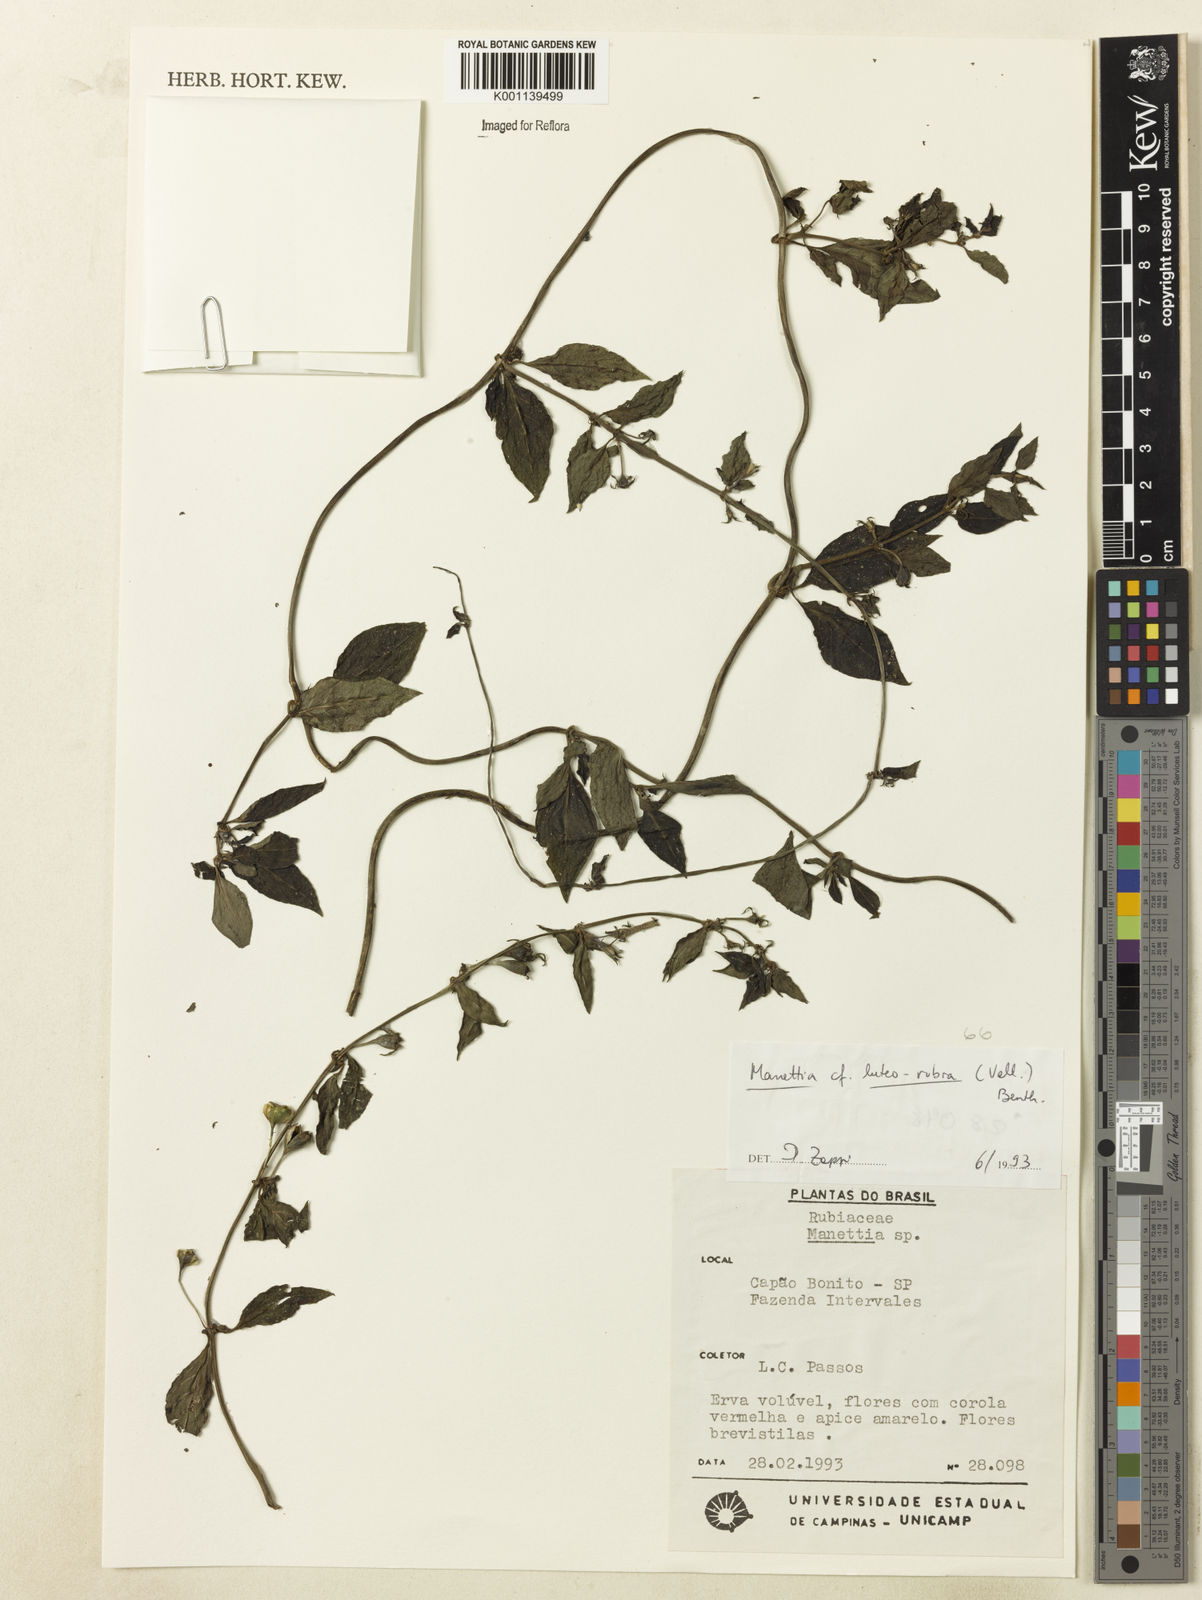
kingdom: Plantae
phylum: Tracheophyta
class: Magnoliopsida
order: Gentianales
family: Rubiaceae
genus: Manettia
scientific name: Manettia luteorubra
